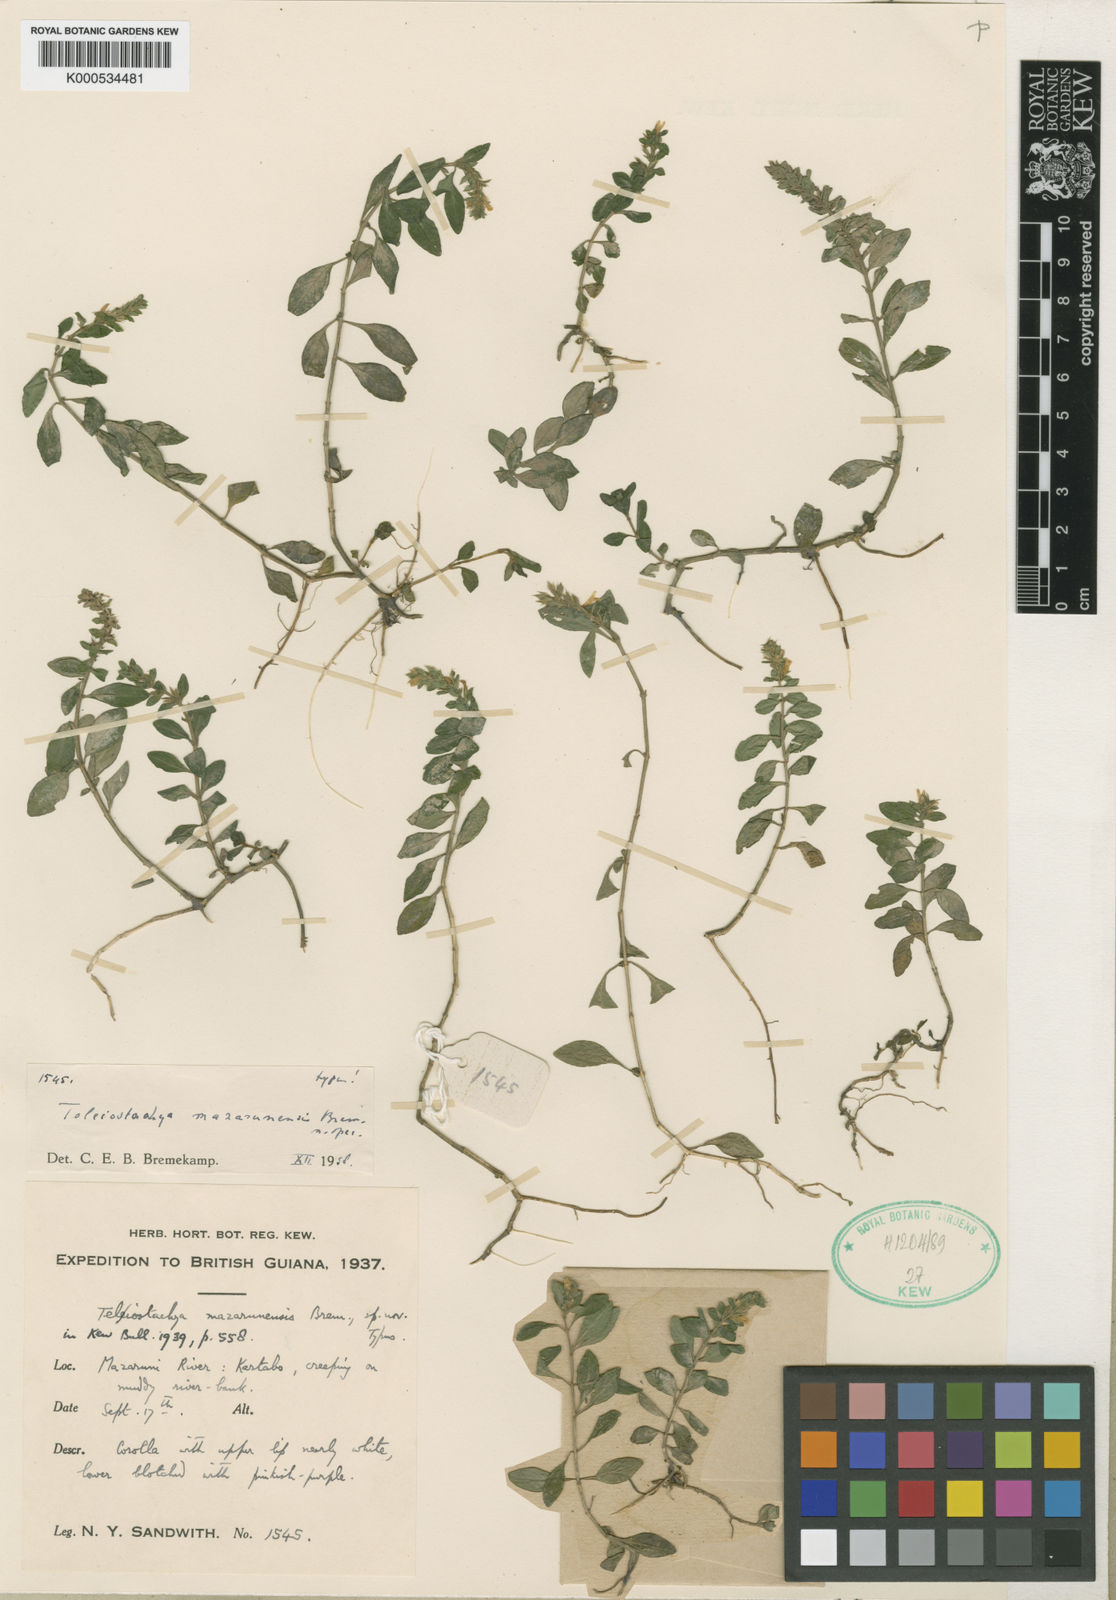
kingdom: Plantae
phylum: Tracheophyta
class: Magnoliopsida
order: Lamiales
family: Acanthaceae
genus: Lepidagathis
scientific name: Lepidagathis
